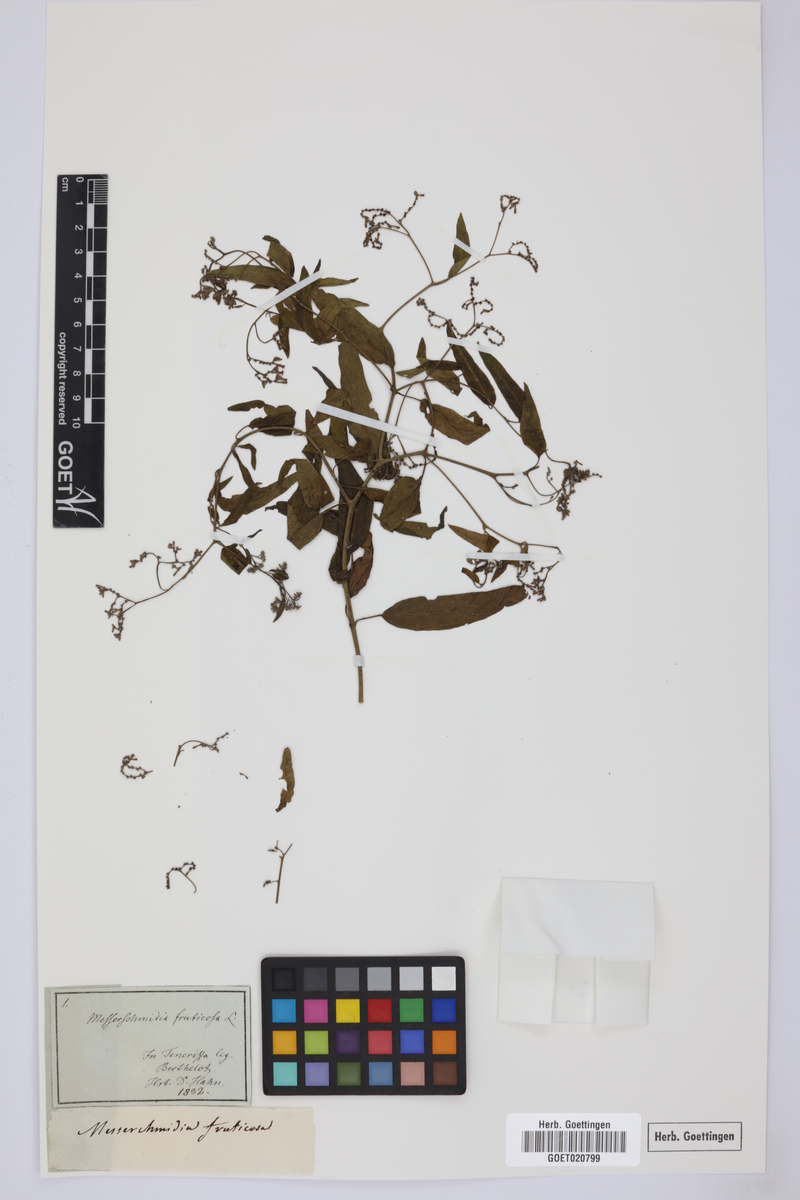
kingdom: Plantae
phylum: Tracheophyta
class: Magnoliopsida
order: Boraginales
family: Heliotropiaceae
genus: Heliotropium
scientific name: Heliotropium messerschmidioides
